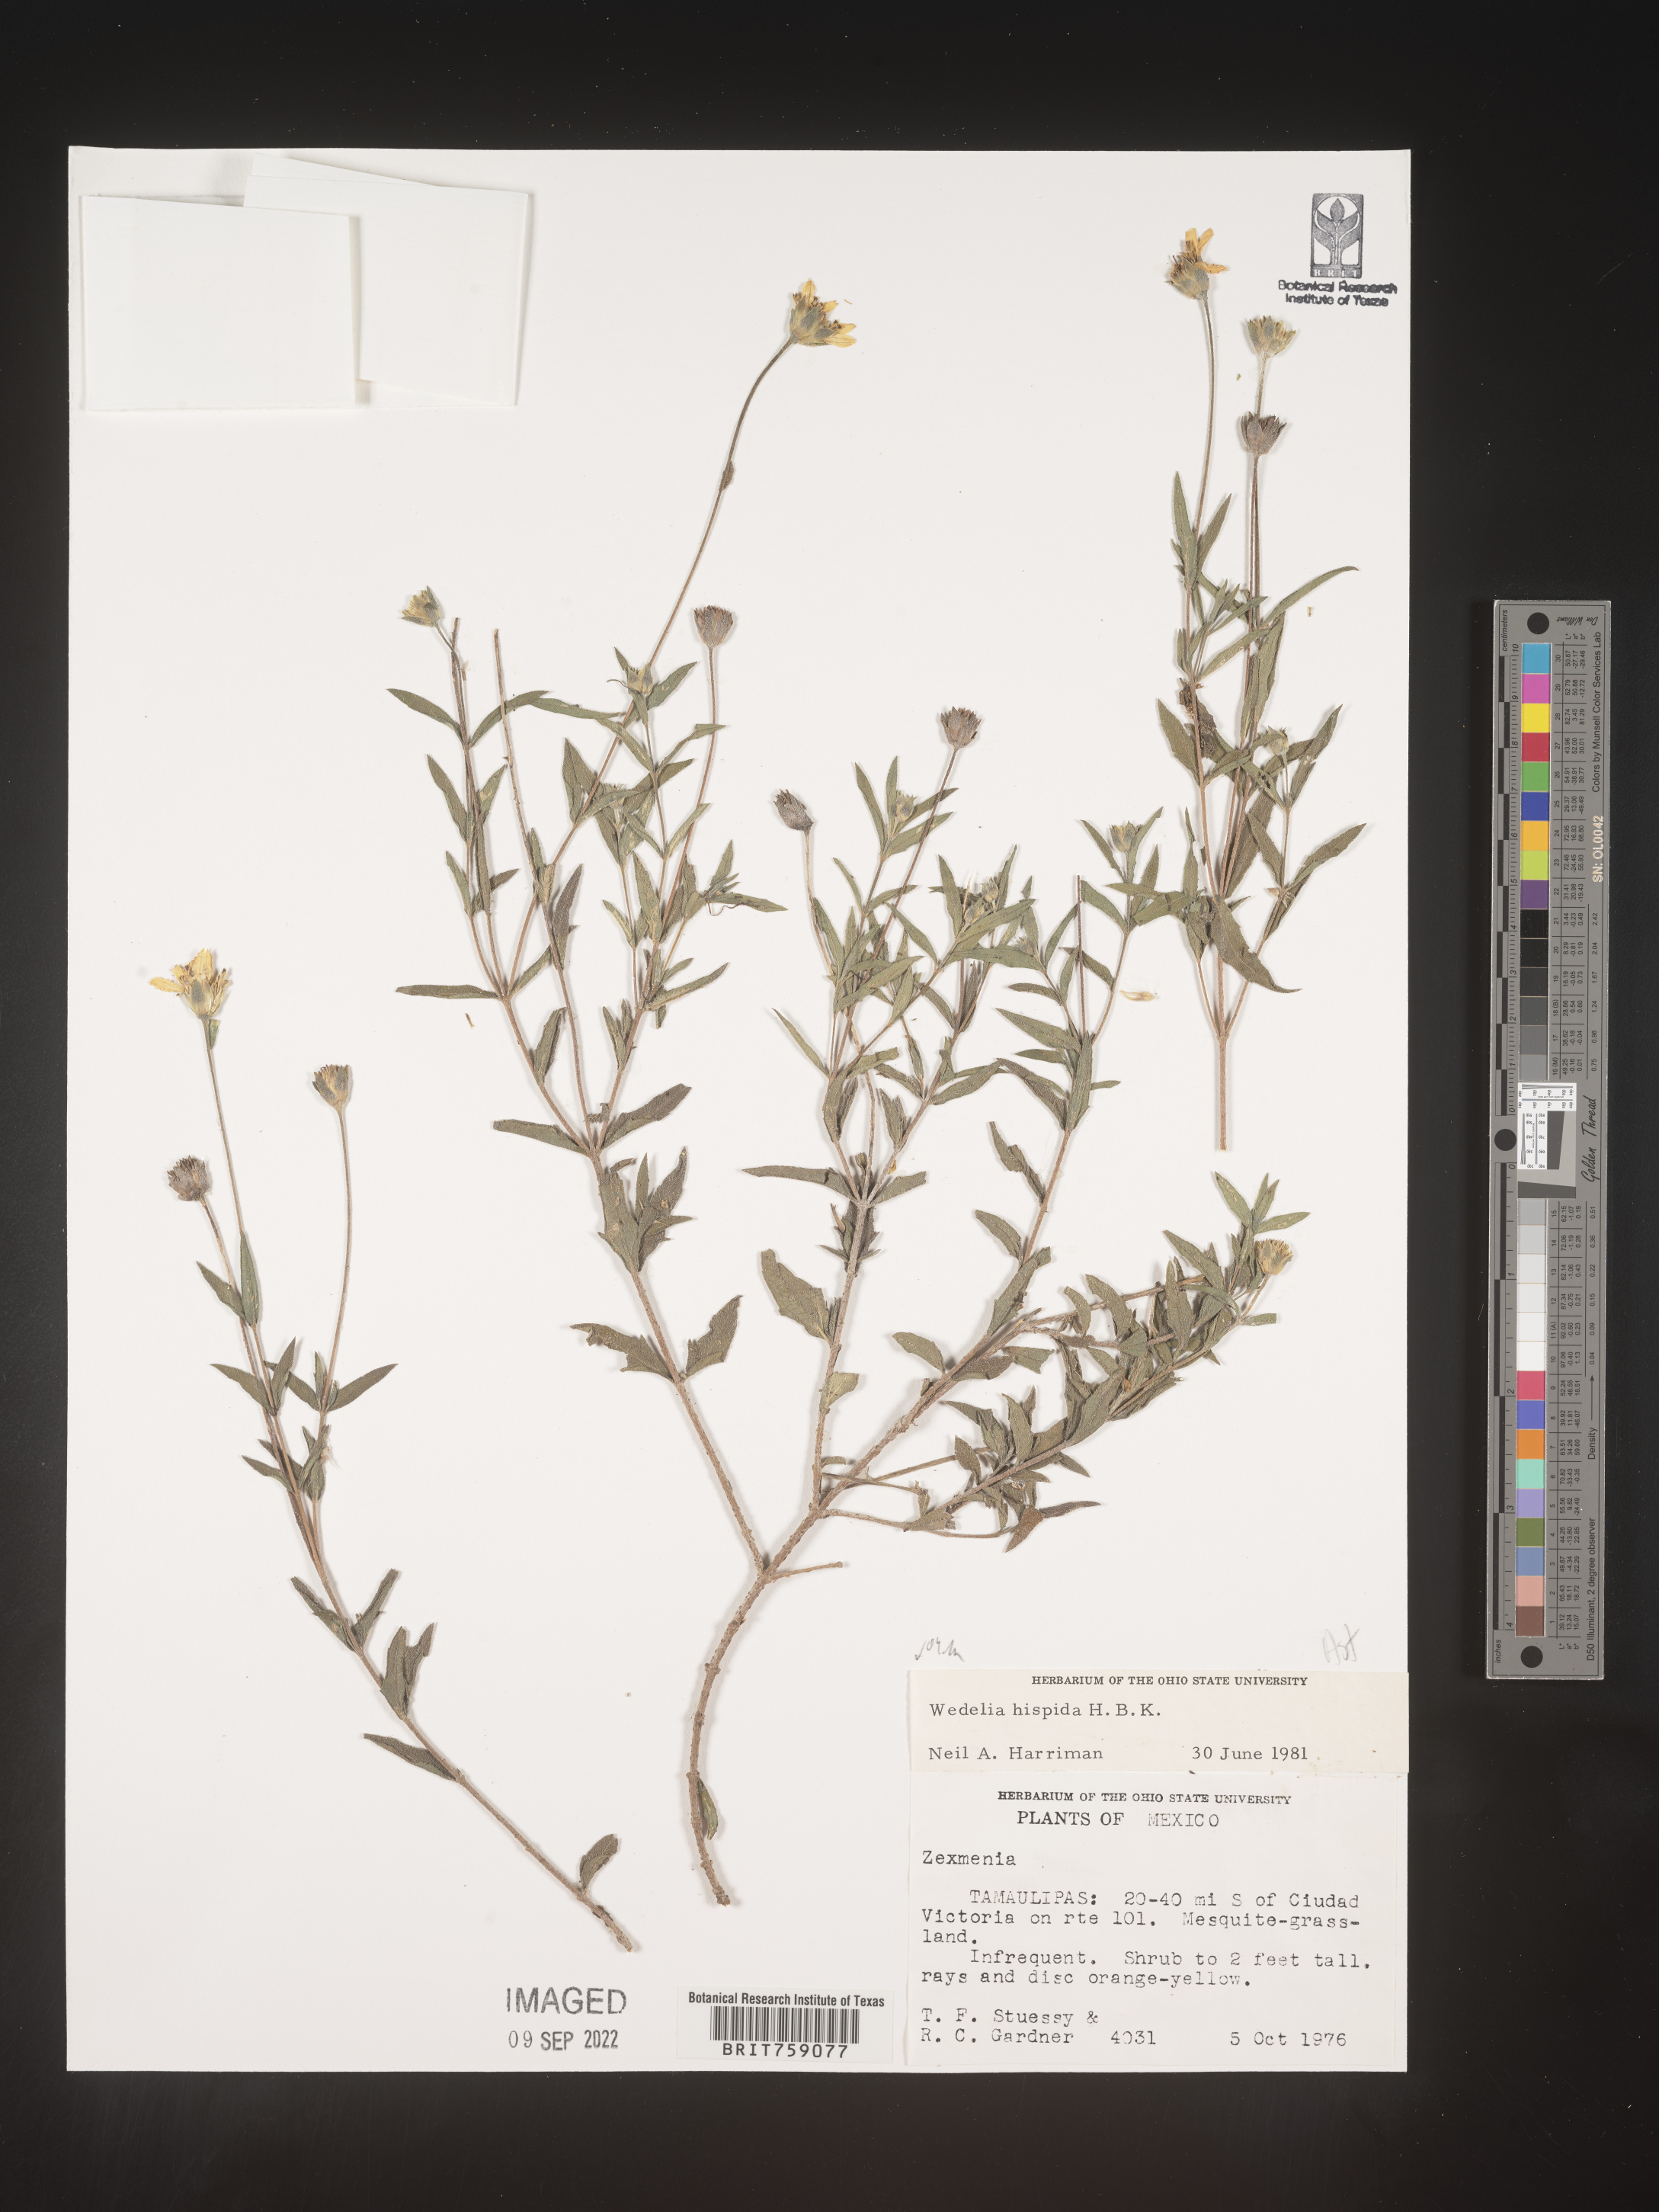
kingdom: Plantae
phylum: Tracheophyta
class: Magnoliopsida
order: Asterales
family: Asteraceae
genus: Wedelia
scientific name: Wedelia
